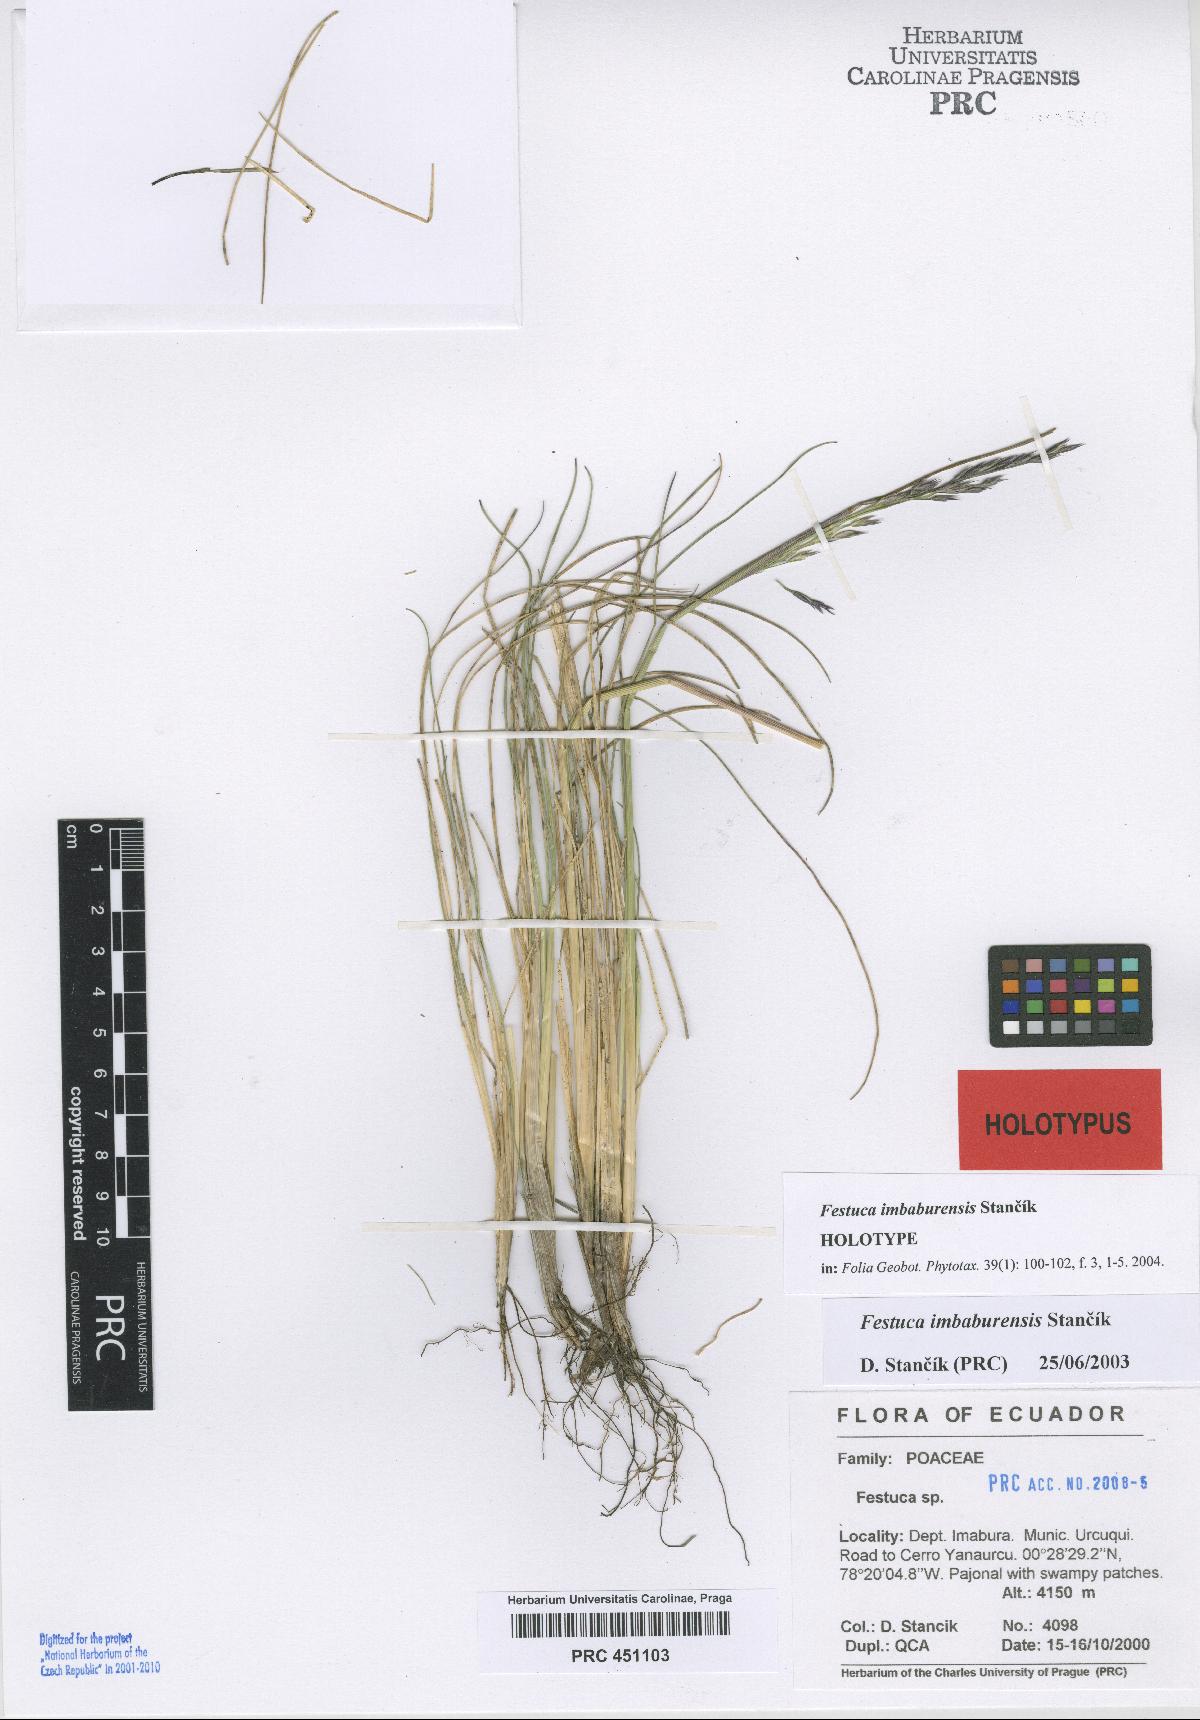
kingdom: Plantae
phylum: Tracheophyta
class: Liliopsida
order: Poales
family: Poaceae
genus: Festuca
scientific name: Festuca imbaburensis
